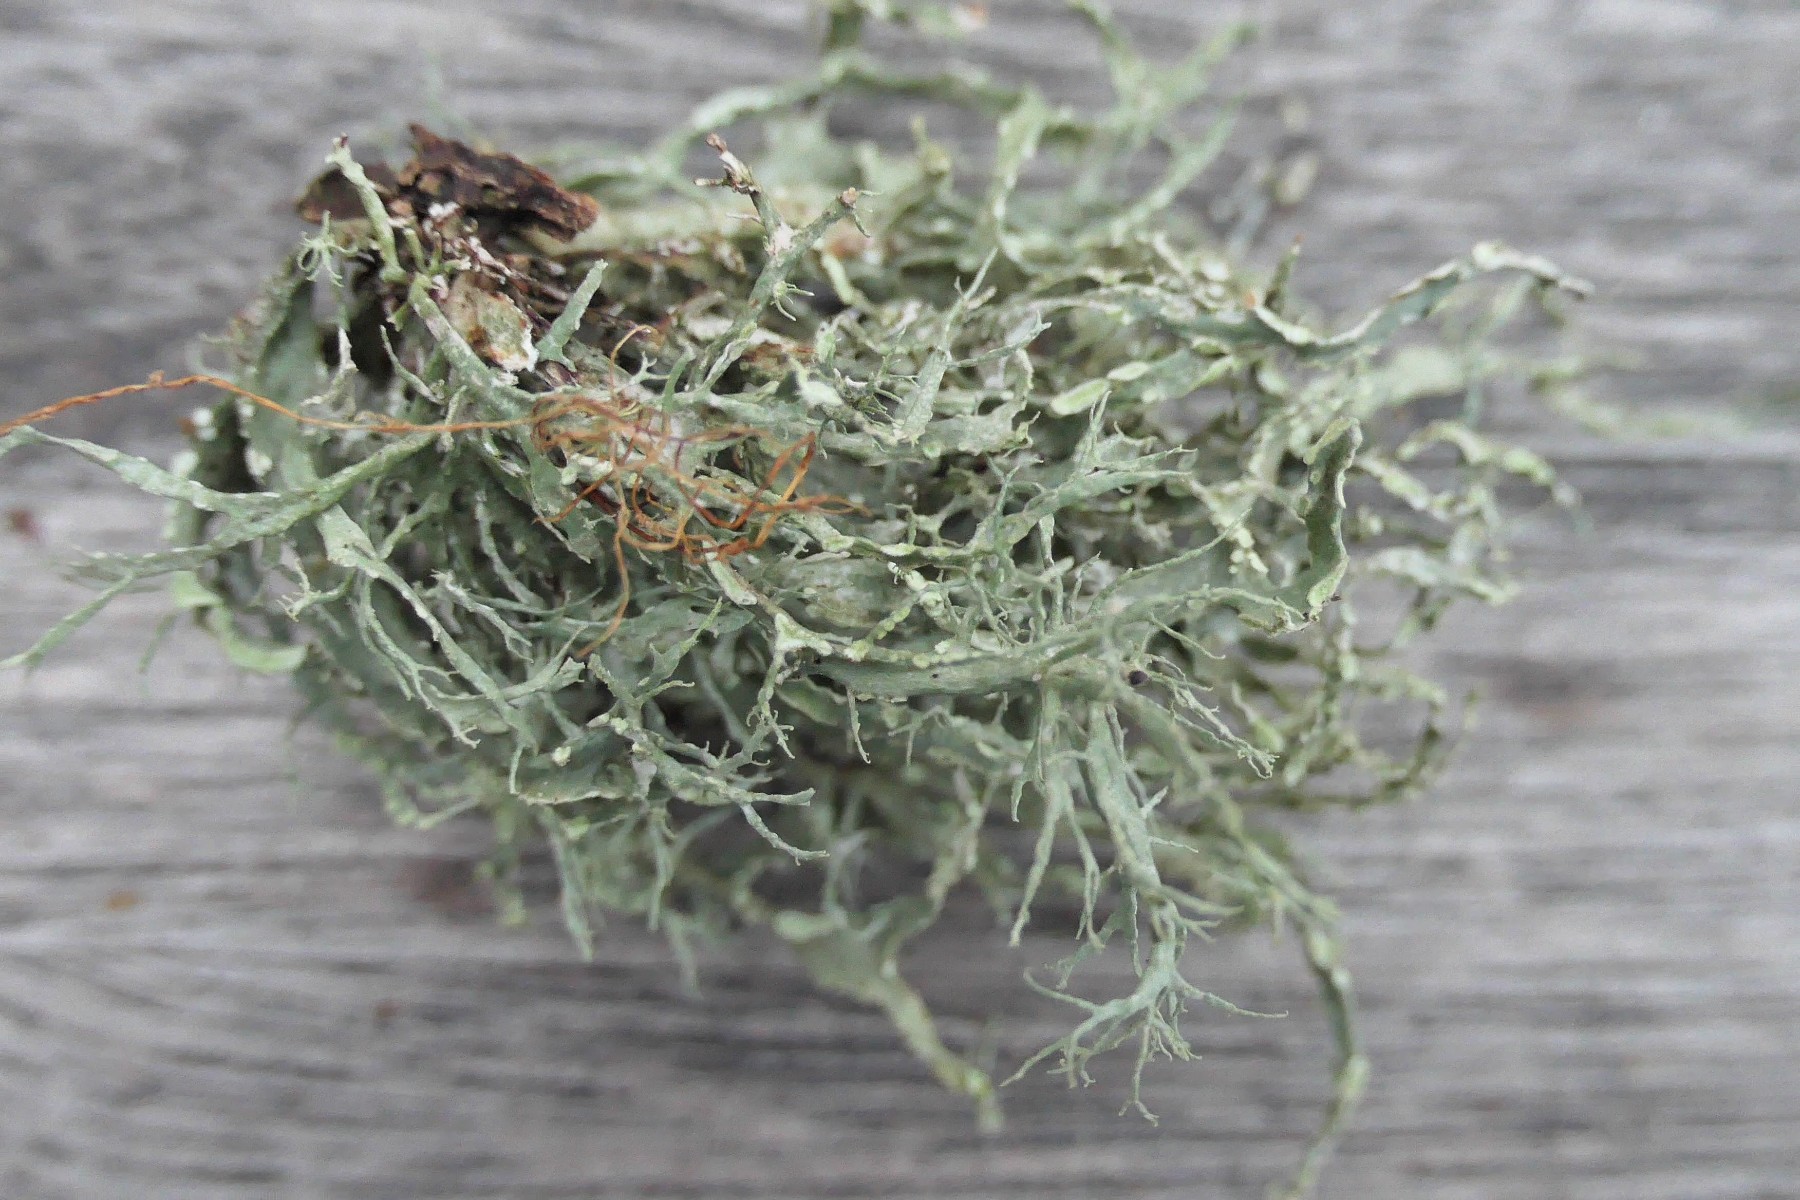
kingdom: Fungi
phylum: Ascomycota
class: Lecanoromycetes
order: Lecanorales
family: Ramalinaceae
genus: Ramalina
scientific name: Ramalina farinacea
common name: melet grenlav
